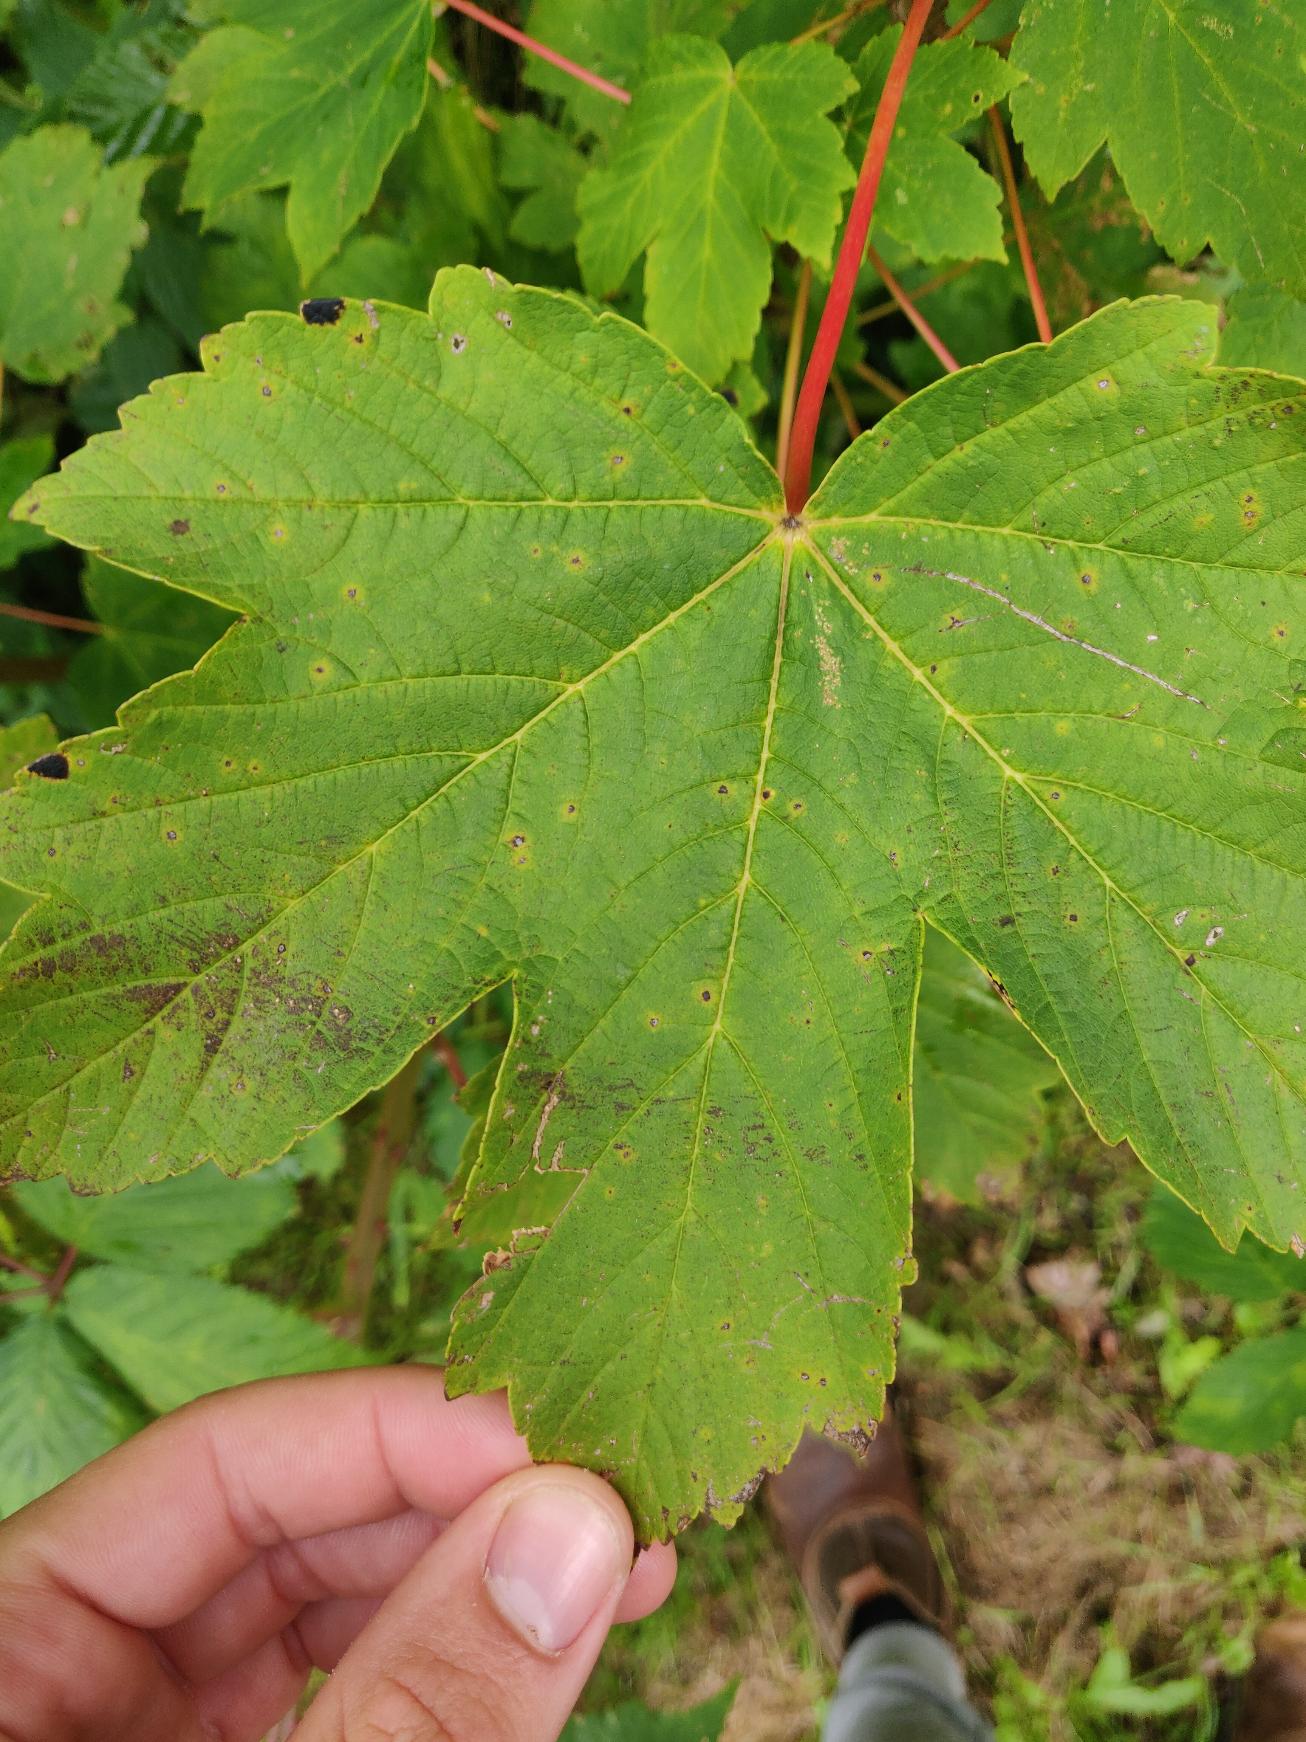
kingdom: Plantae
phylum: Tracheophyta
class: Magnoliopsida
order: Sapindales
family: Sapindaceae
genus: Acer
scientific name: Acer pseudoplatanus
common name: Ahorn
